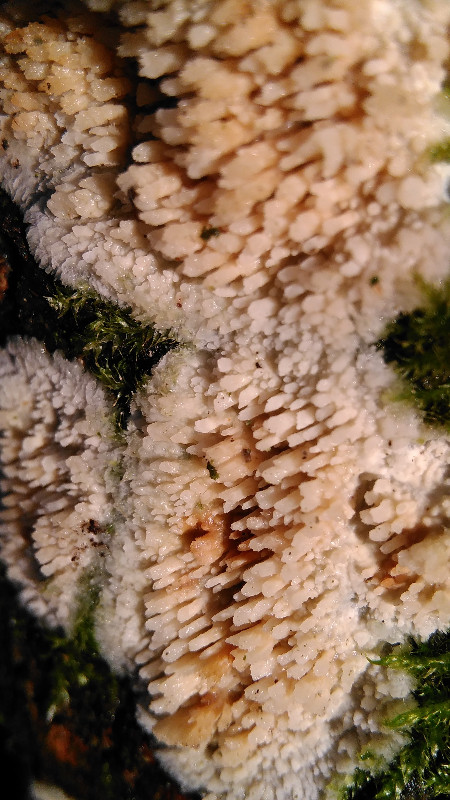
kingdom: Fungi
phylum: Basidiomycota
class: Agaricomycetes
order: Agaricales
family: Radulomycetaceae
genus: Radulomyces
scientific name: Radulomyces molaris
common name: tandet naftalinskind
